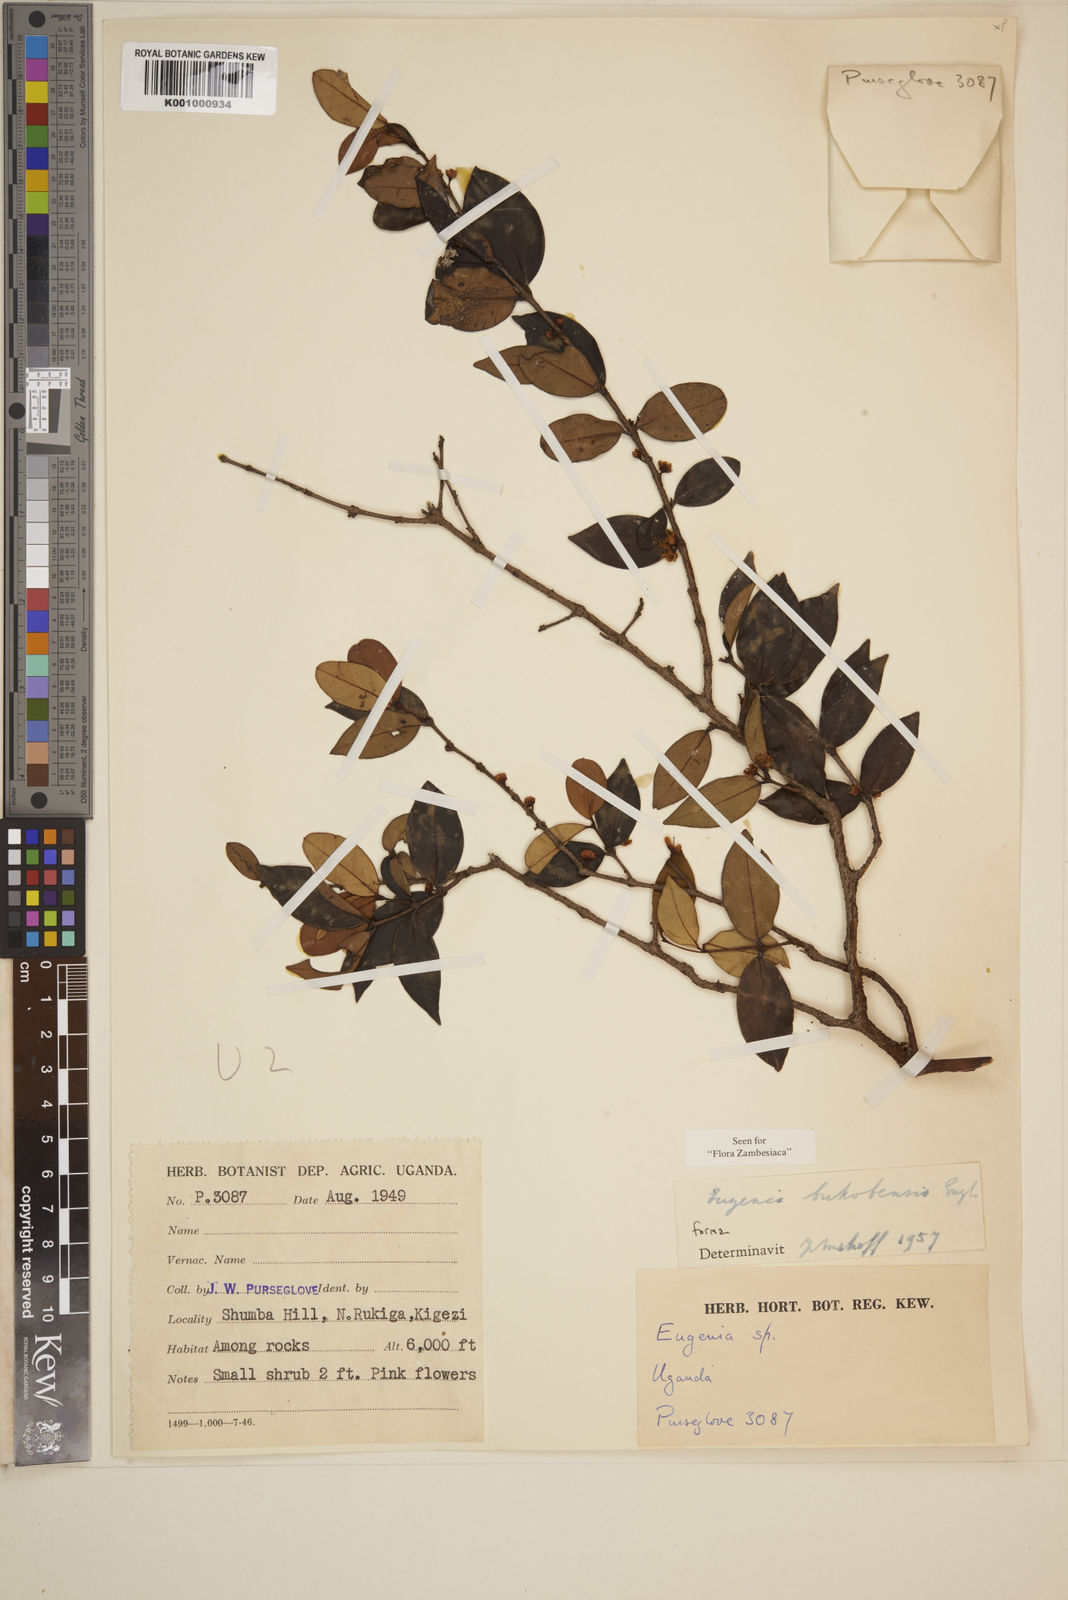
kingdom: Plantae
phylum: Tracheophyta
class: Magnoliopsida
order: Myrtales
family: Myrtaceae
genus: Eugenia
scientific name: Eugenia bukobensis
